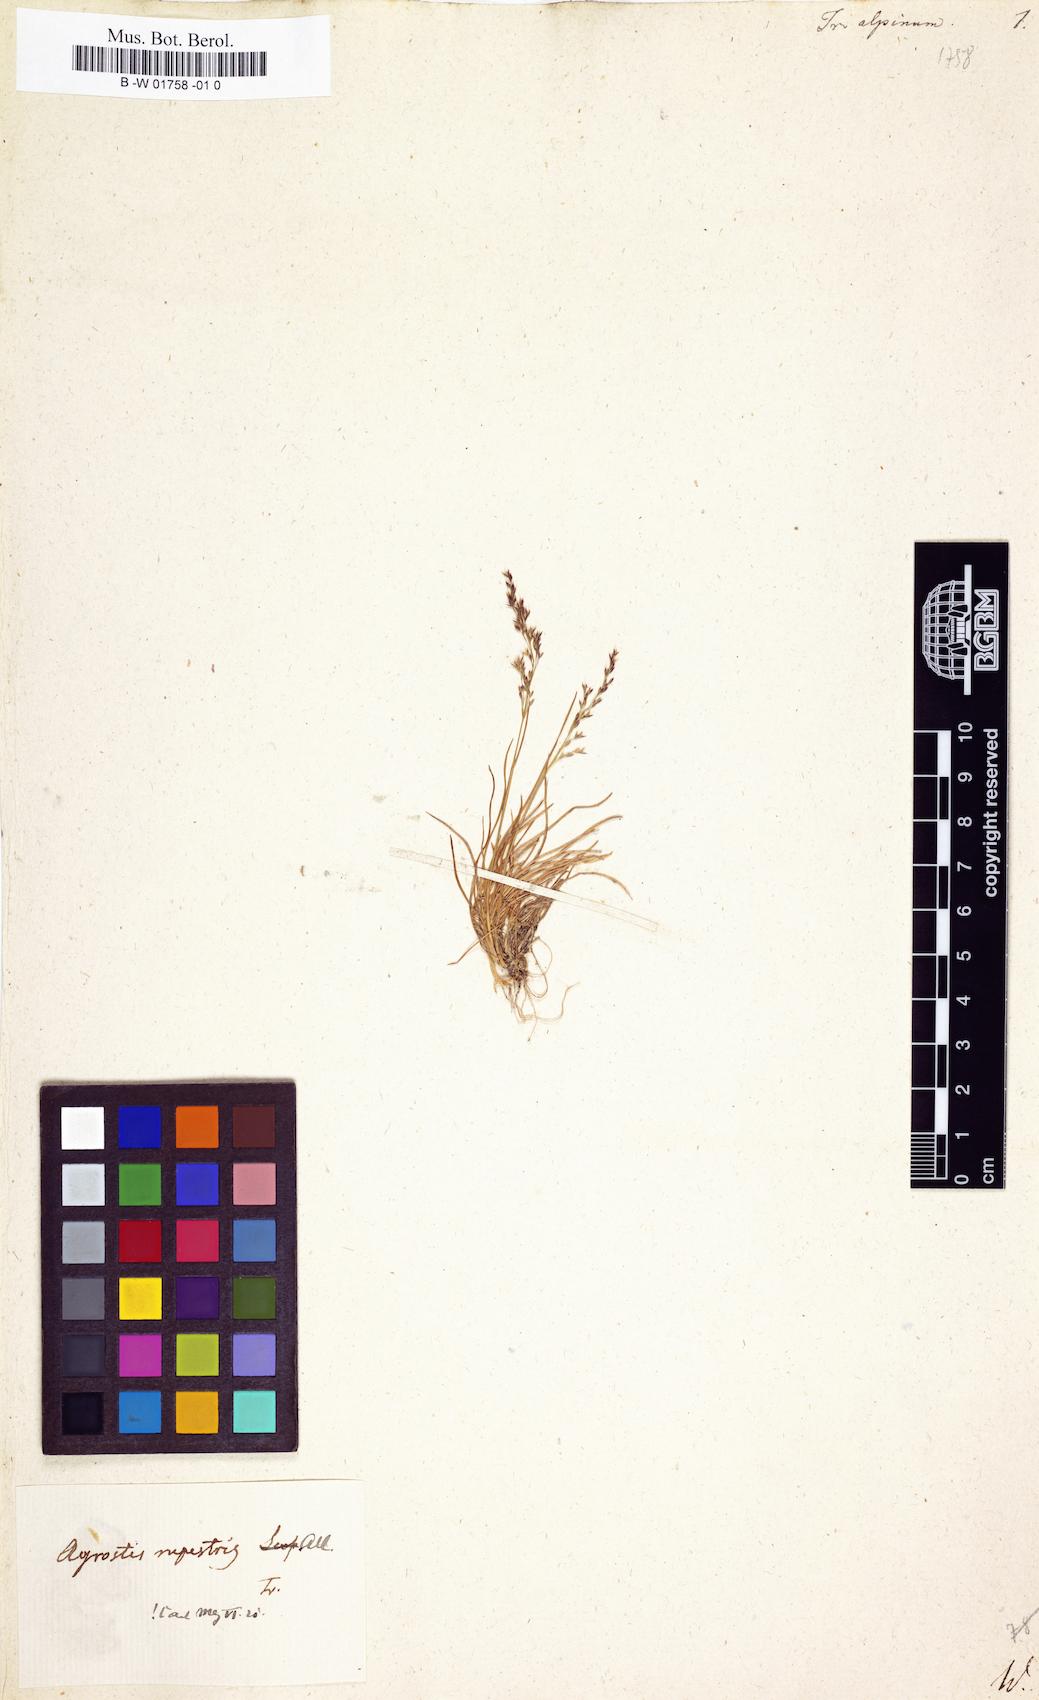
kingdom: Plantae
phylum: Tracheophyta
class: Liliopsida
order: Poales
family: Poaceae
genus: Agrostis
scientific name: Agrostis rupestris
